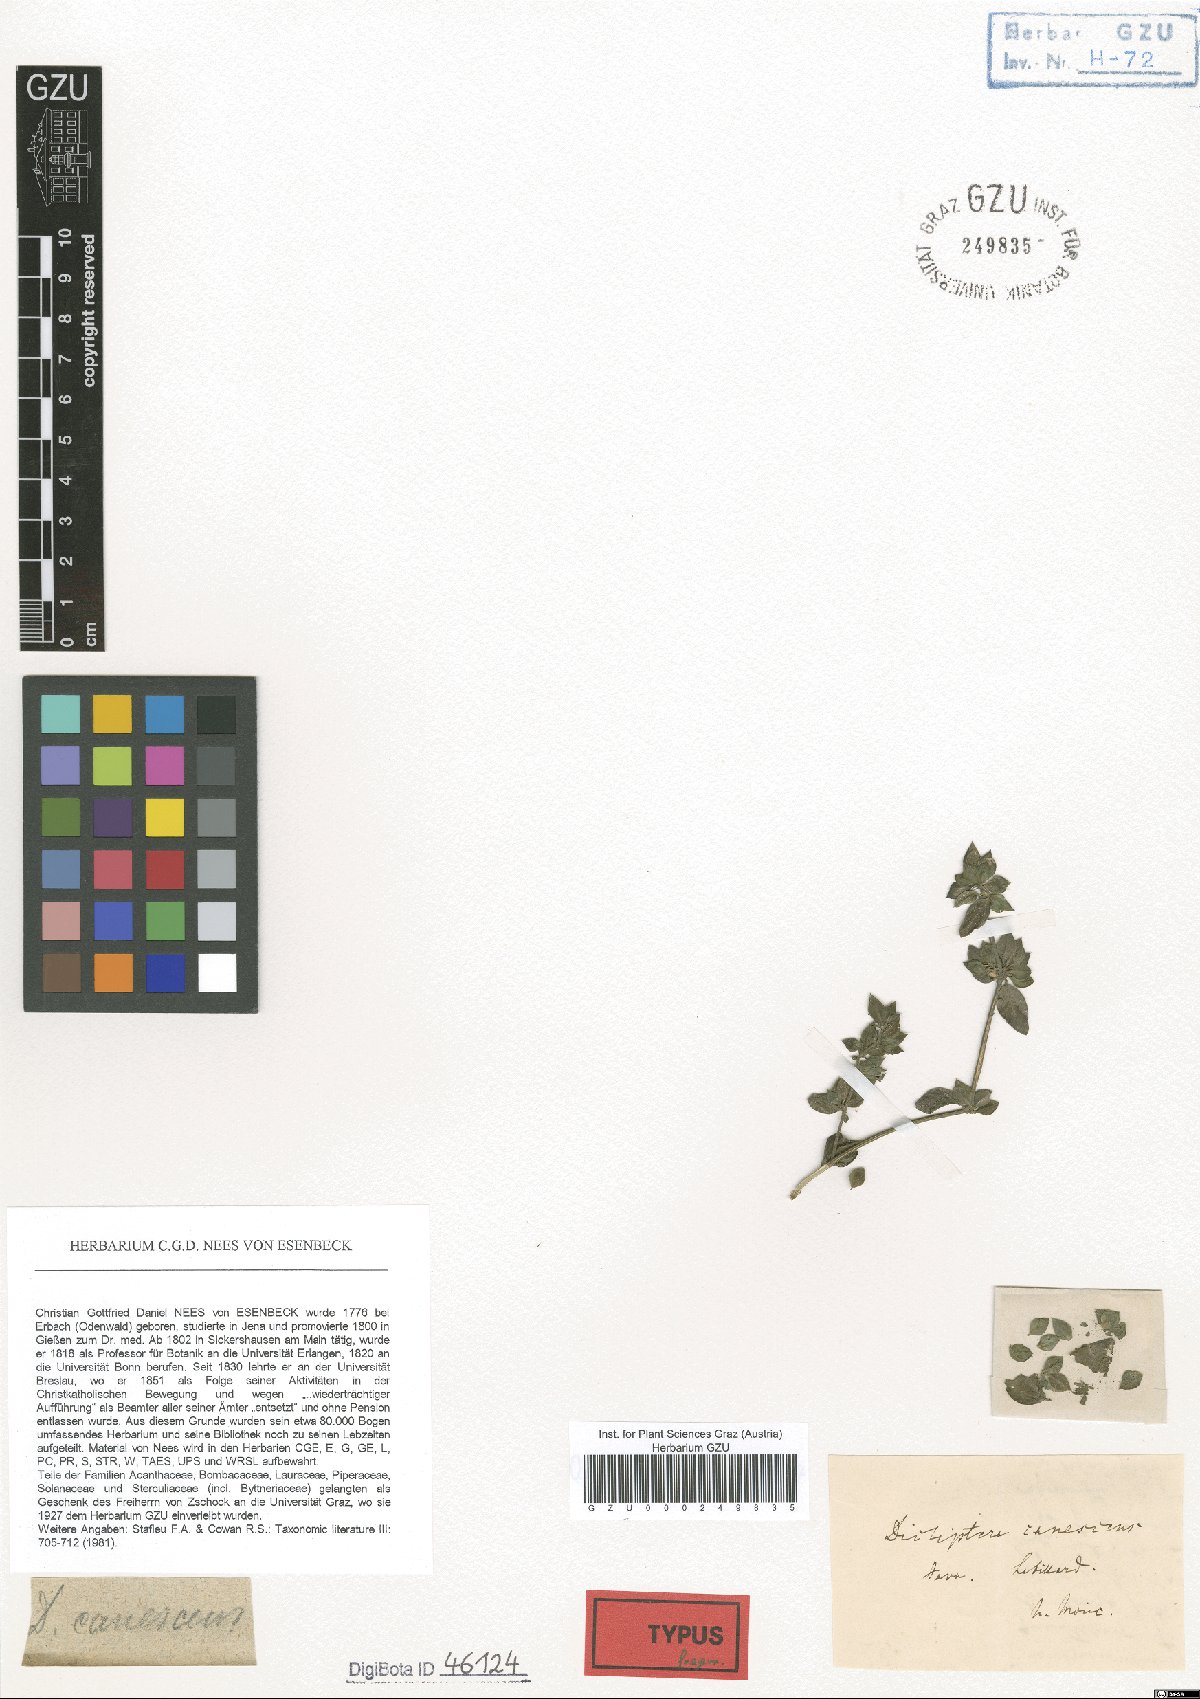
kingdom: Plantae
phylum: Tracheophyta
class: Magnoliopsida
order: Lamiales
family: Acanthaceae
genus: Dicliptera
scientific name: Dicliptera canescens
